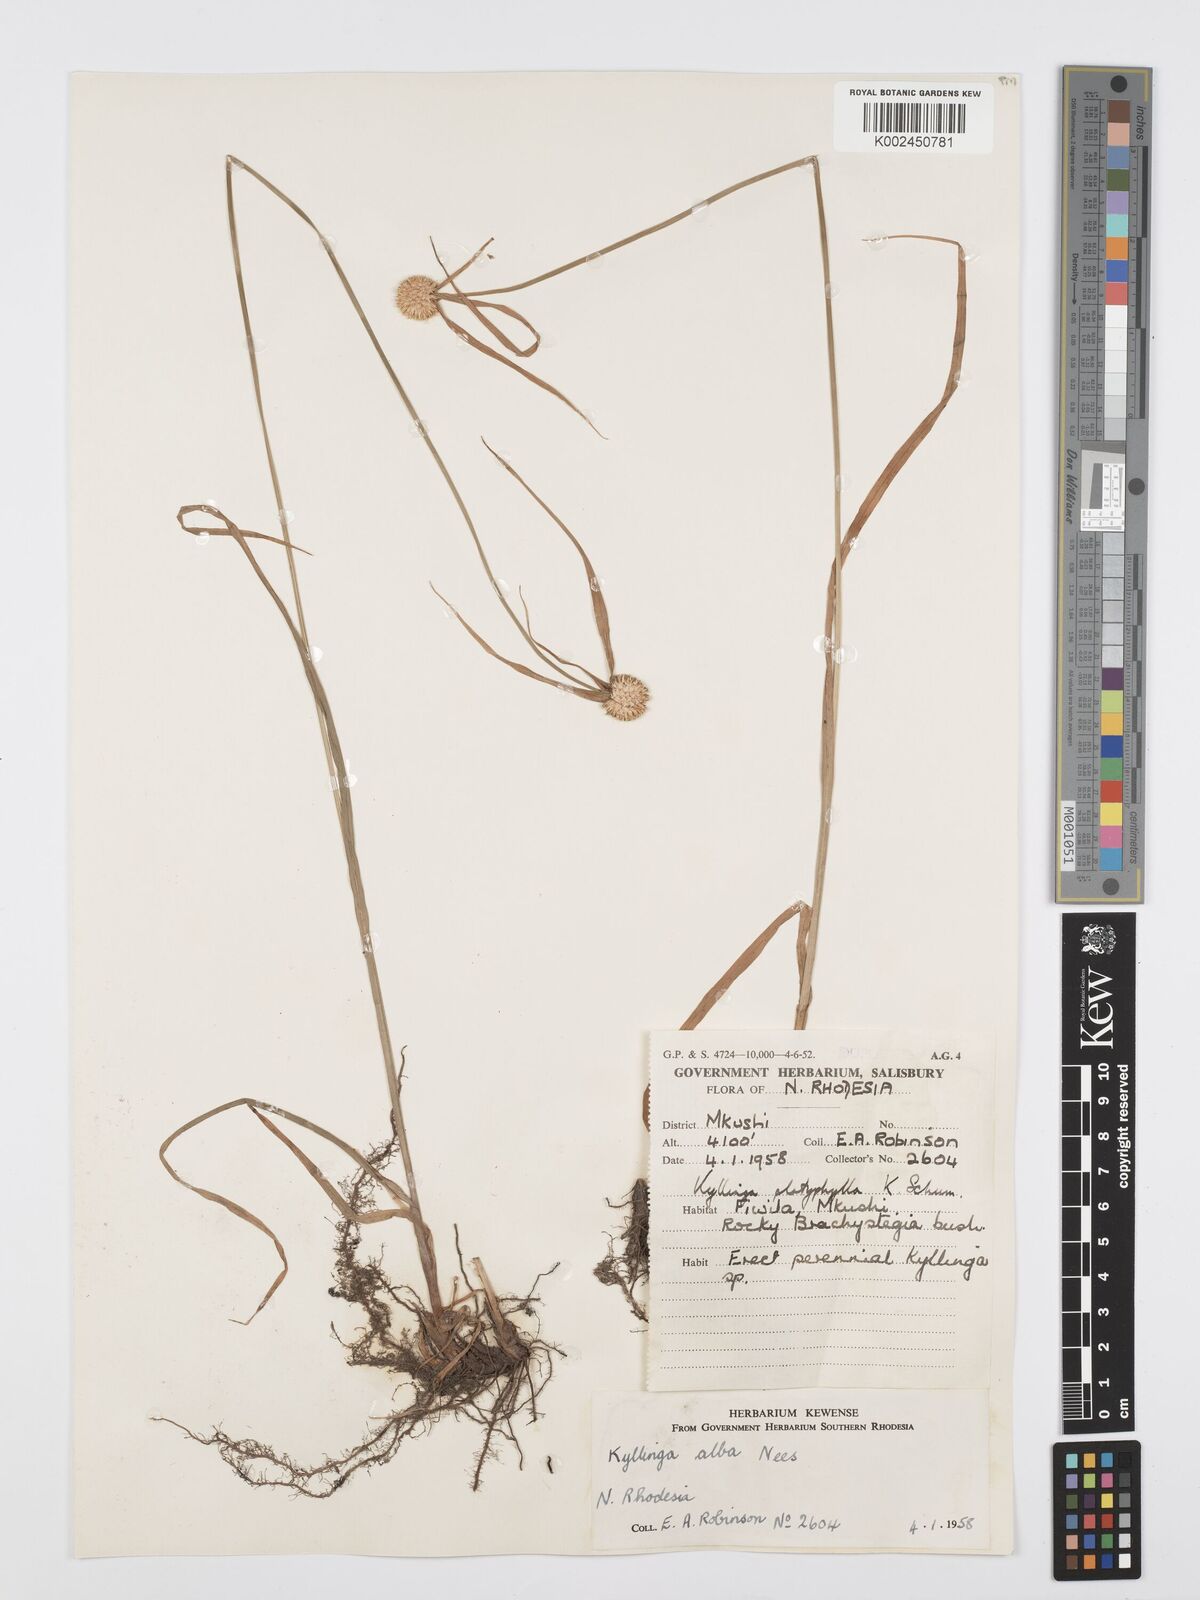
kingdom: Plantae
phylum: Tracheophyta
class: Liliopsida
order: Poales
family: Cyperaceae
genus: Cyperus
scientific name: Cyperus rukwanus
